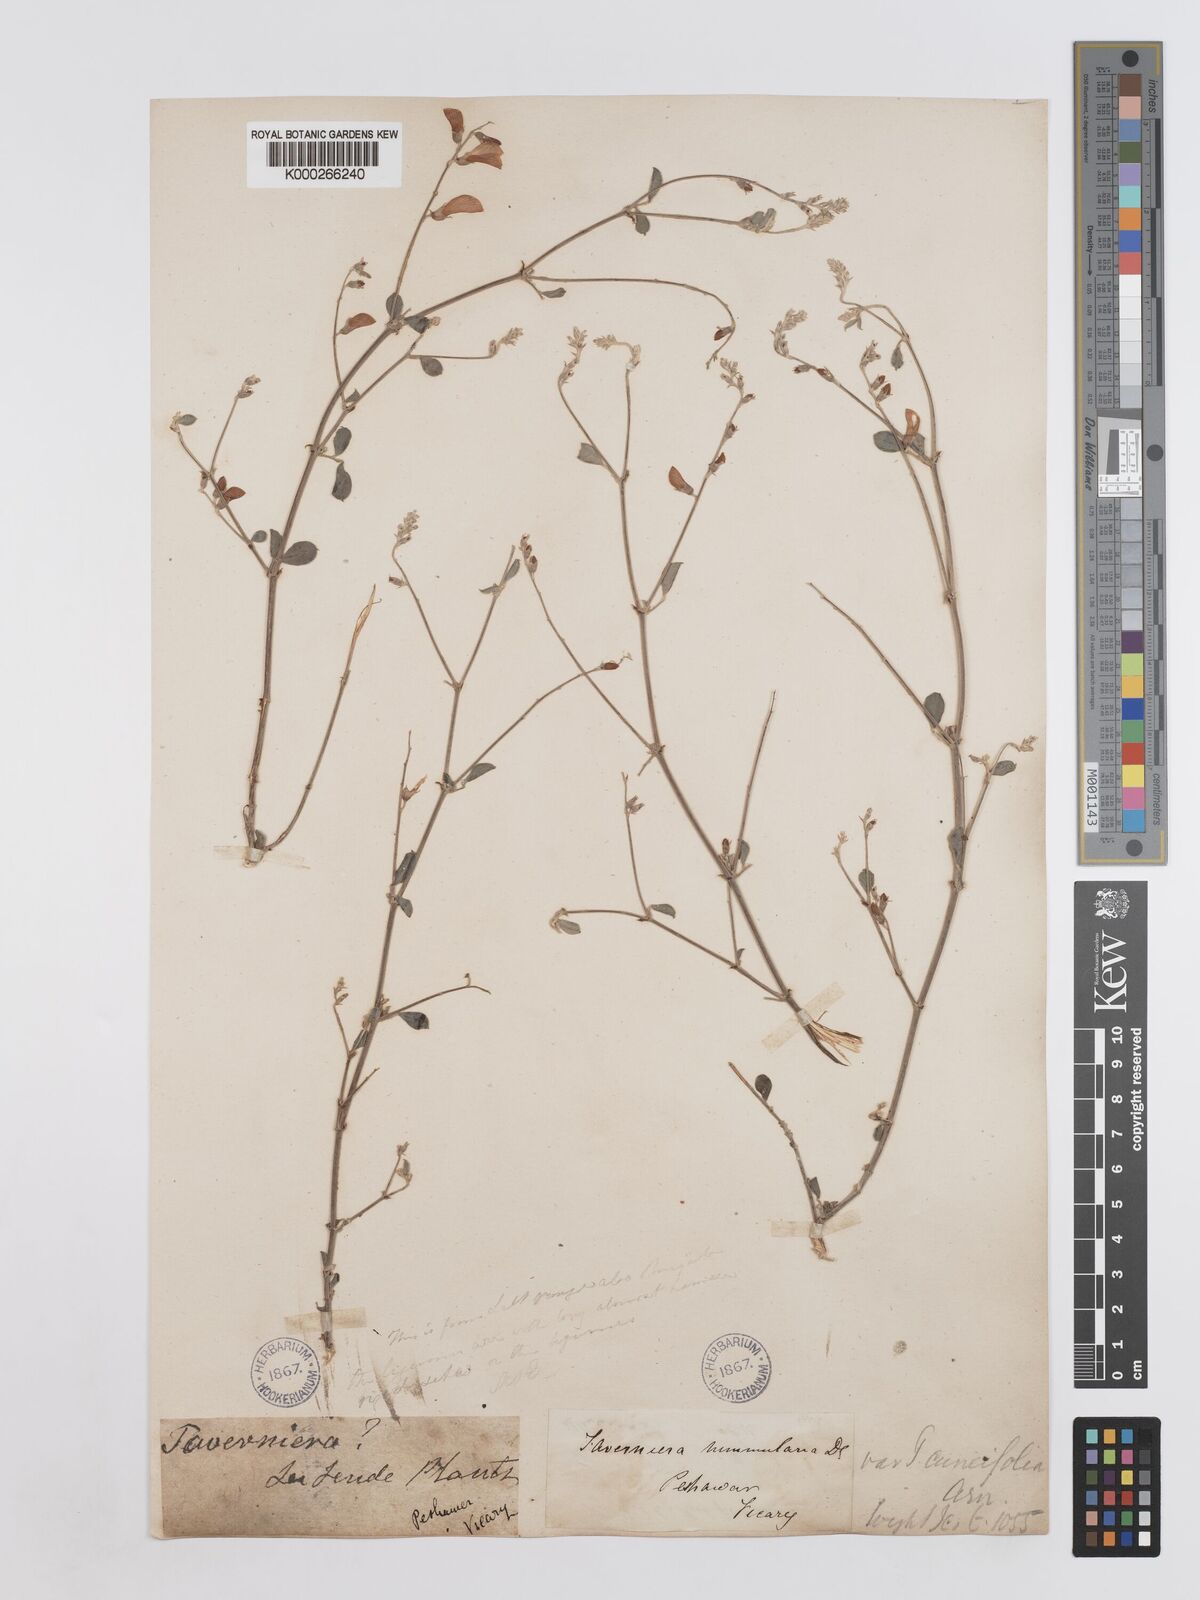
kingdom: Plantae
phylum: Tracheophyta
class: Magnoliopsida
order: Fabales
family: Fabaceae
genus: Taverniera
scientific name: Taverniera nummularia
